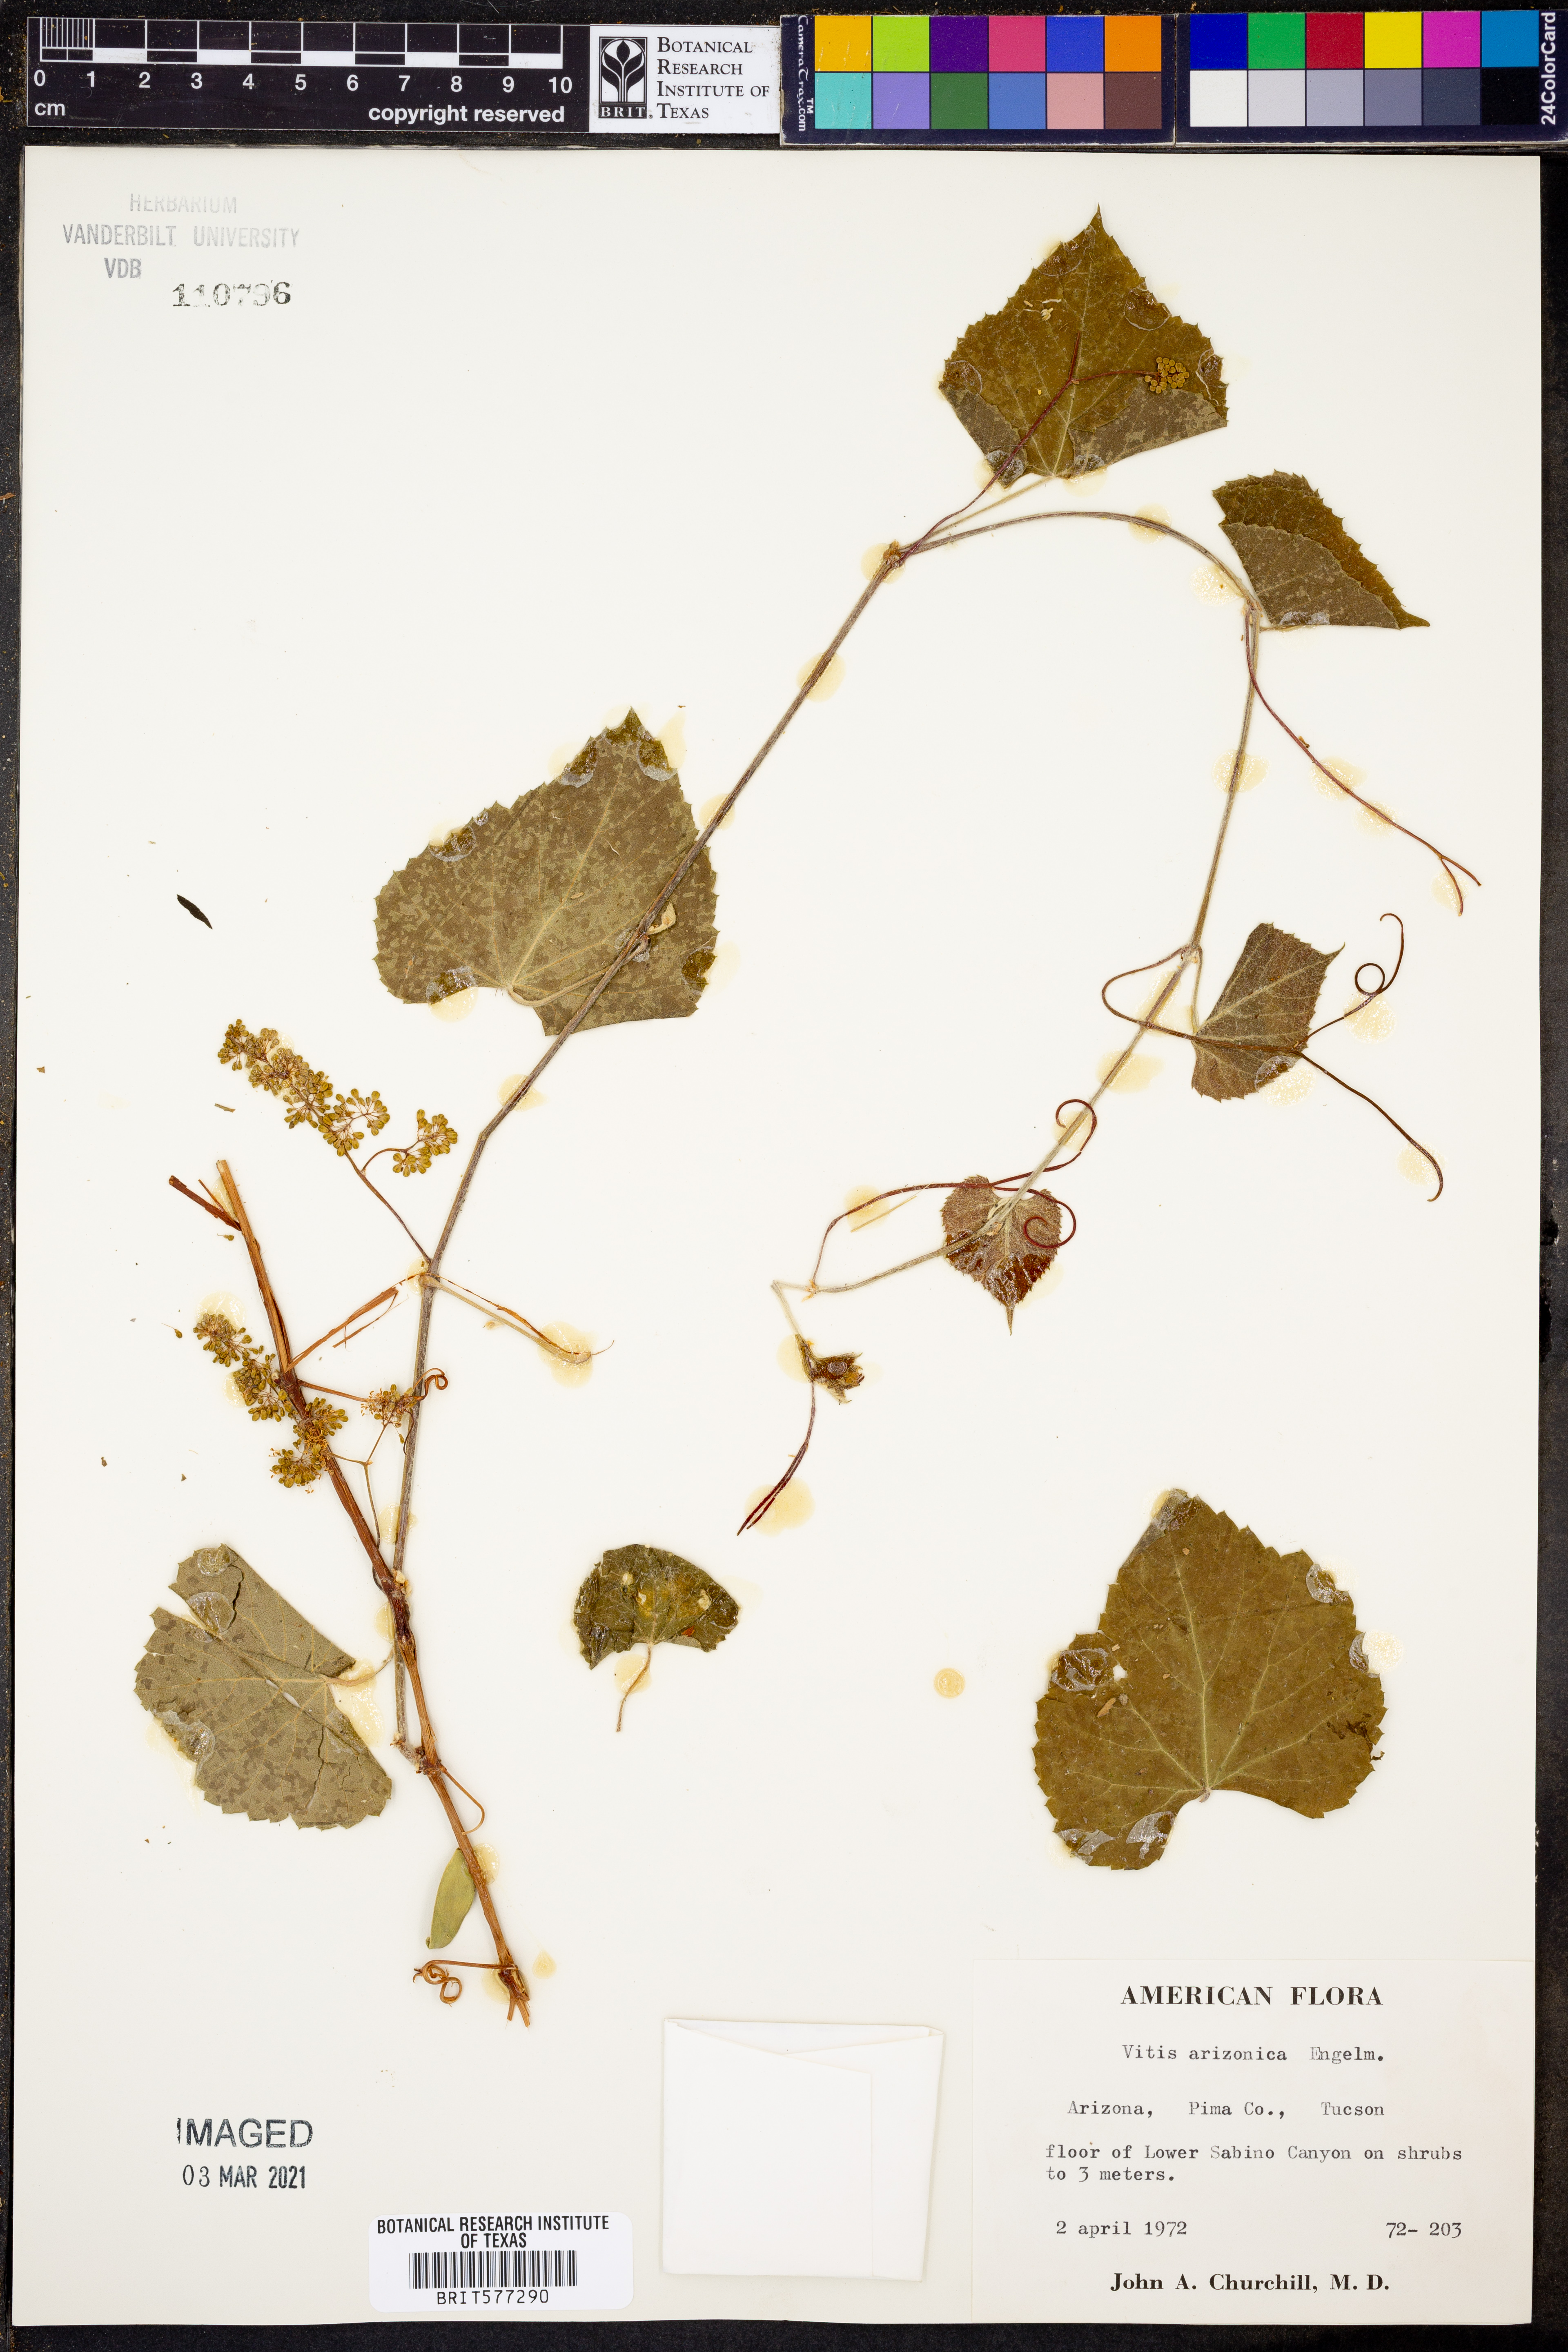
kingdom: Plantae
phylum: Tracheophyta
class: Magnoliopsida
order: Vitales
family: Vitaceae
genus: Vitis
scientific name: Vitis arizonica
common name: Canyon grape
